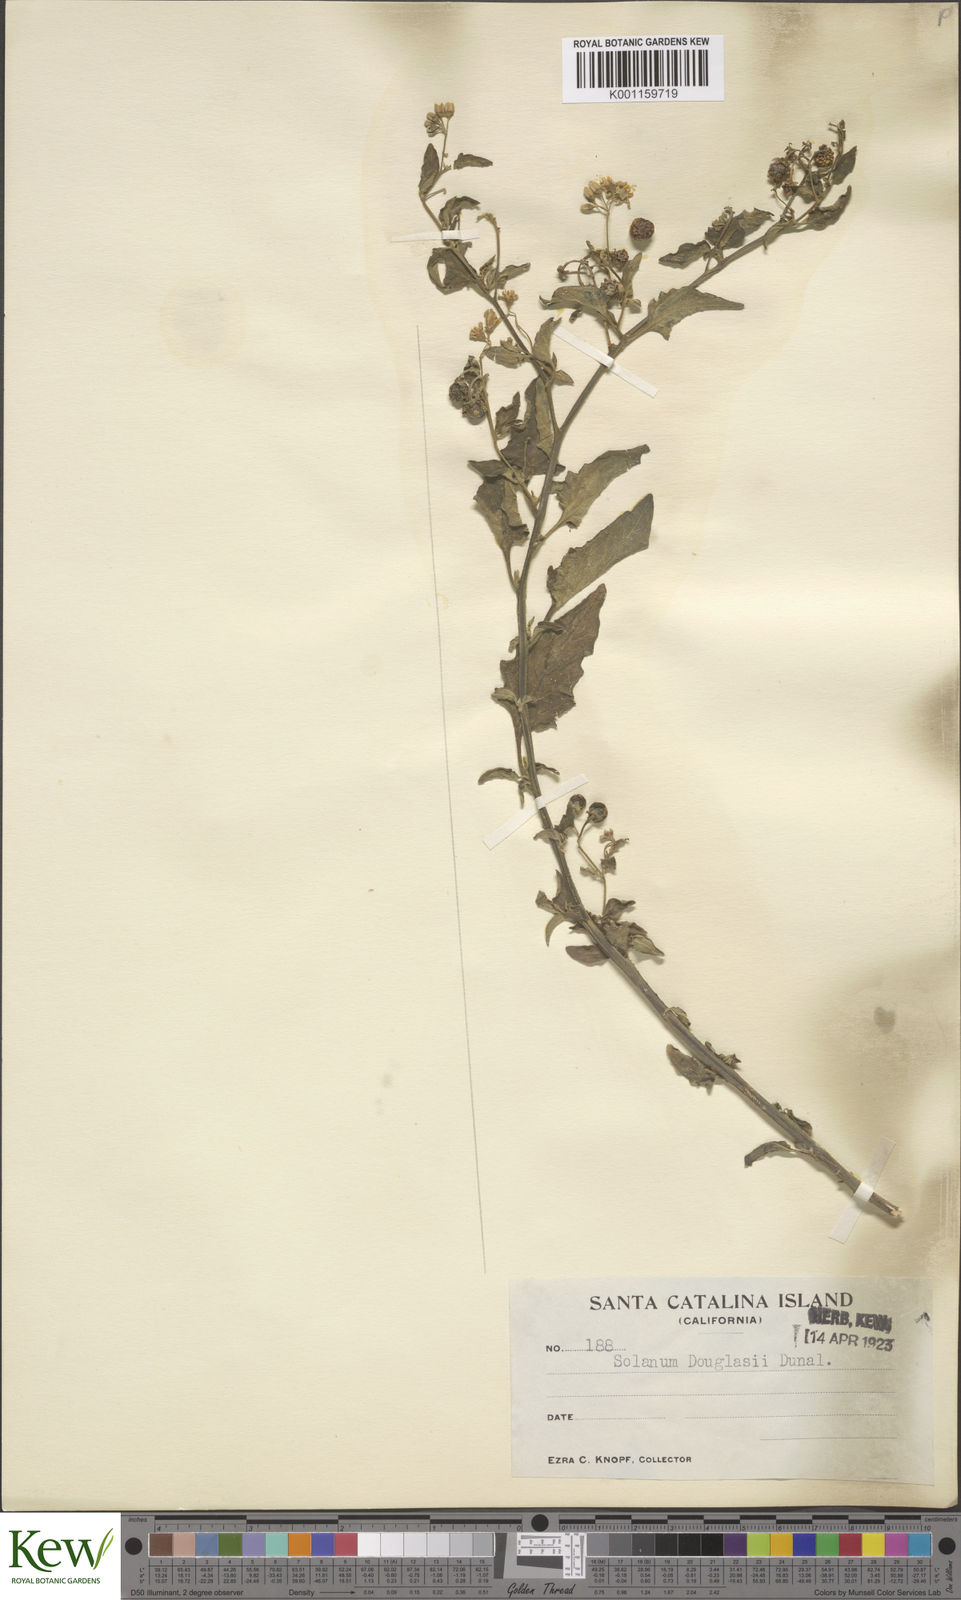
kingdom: Plantae
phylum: Tracheophyta
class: Magnoliopsida
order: Solanales
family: Solanaceae
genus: Solanum
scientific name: Solanum douglasii
